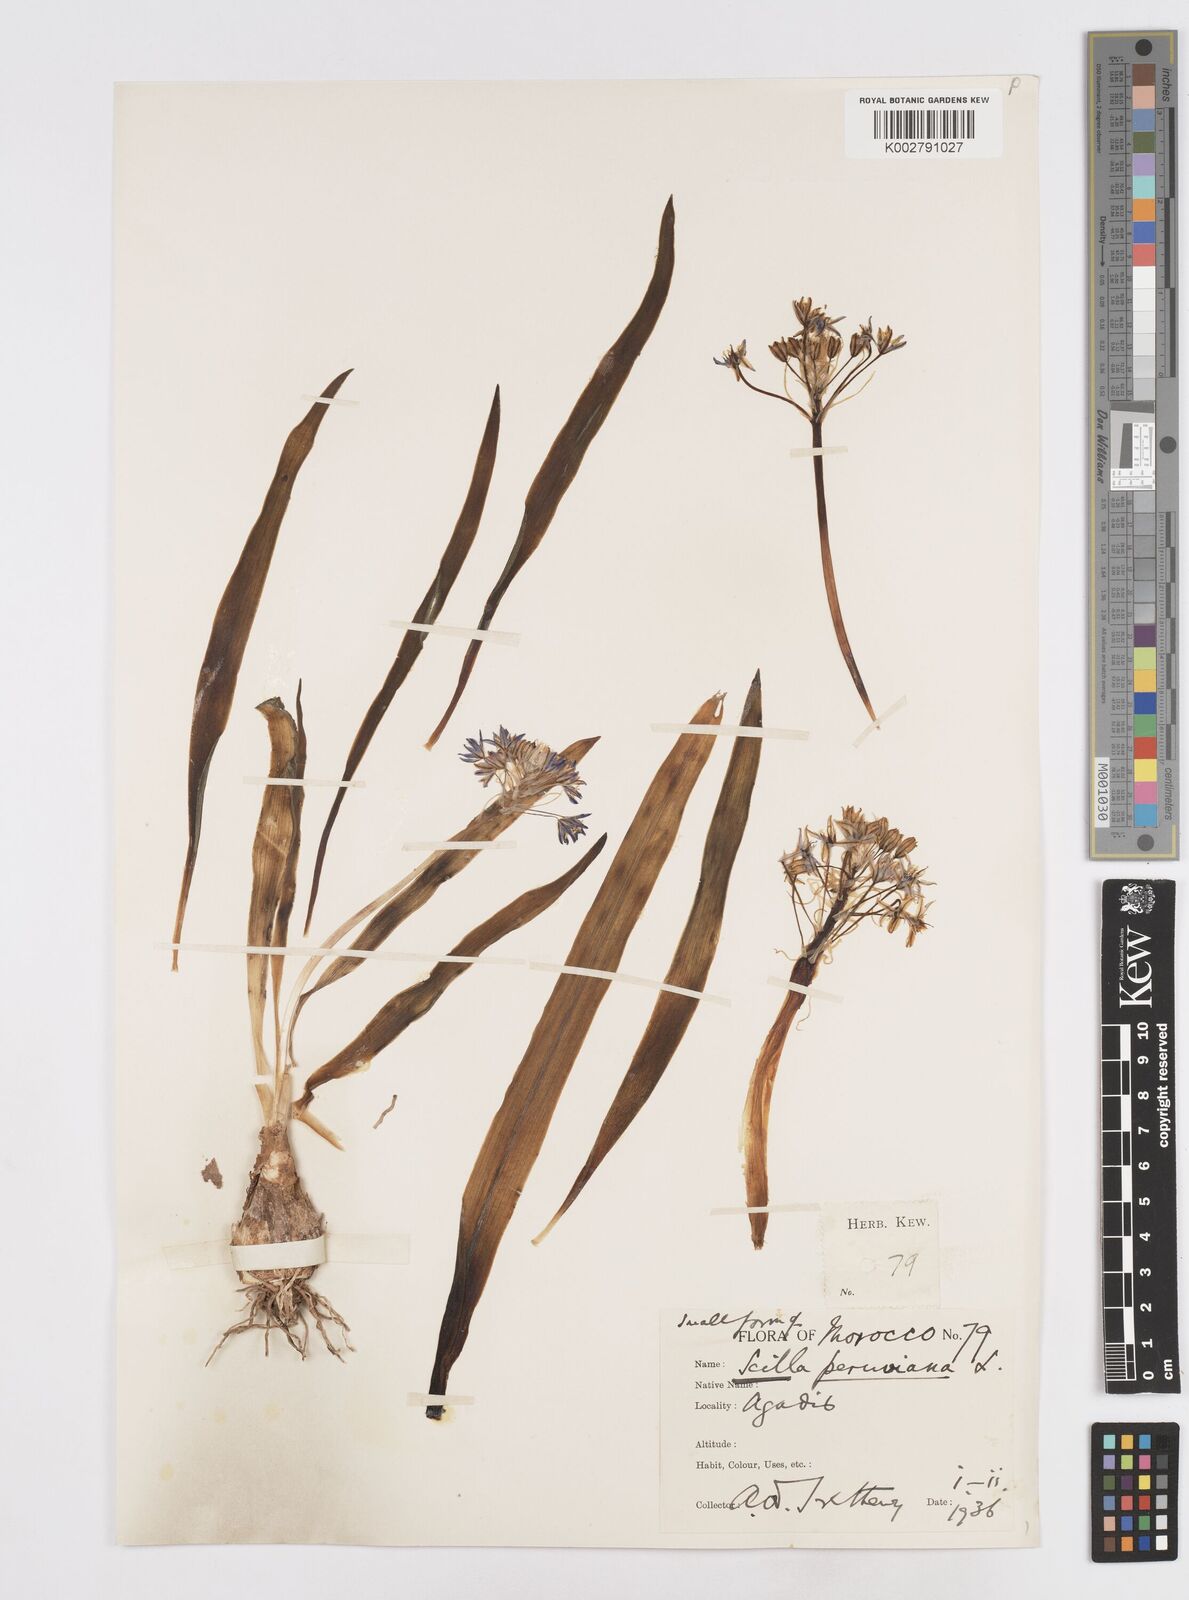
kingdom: Plantae
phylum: Tracheophyta
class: Liliopsida
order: Asparagales
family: Asparagaceae
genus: Scilla
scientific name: Scilla peruviana
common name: Portuguese squill
